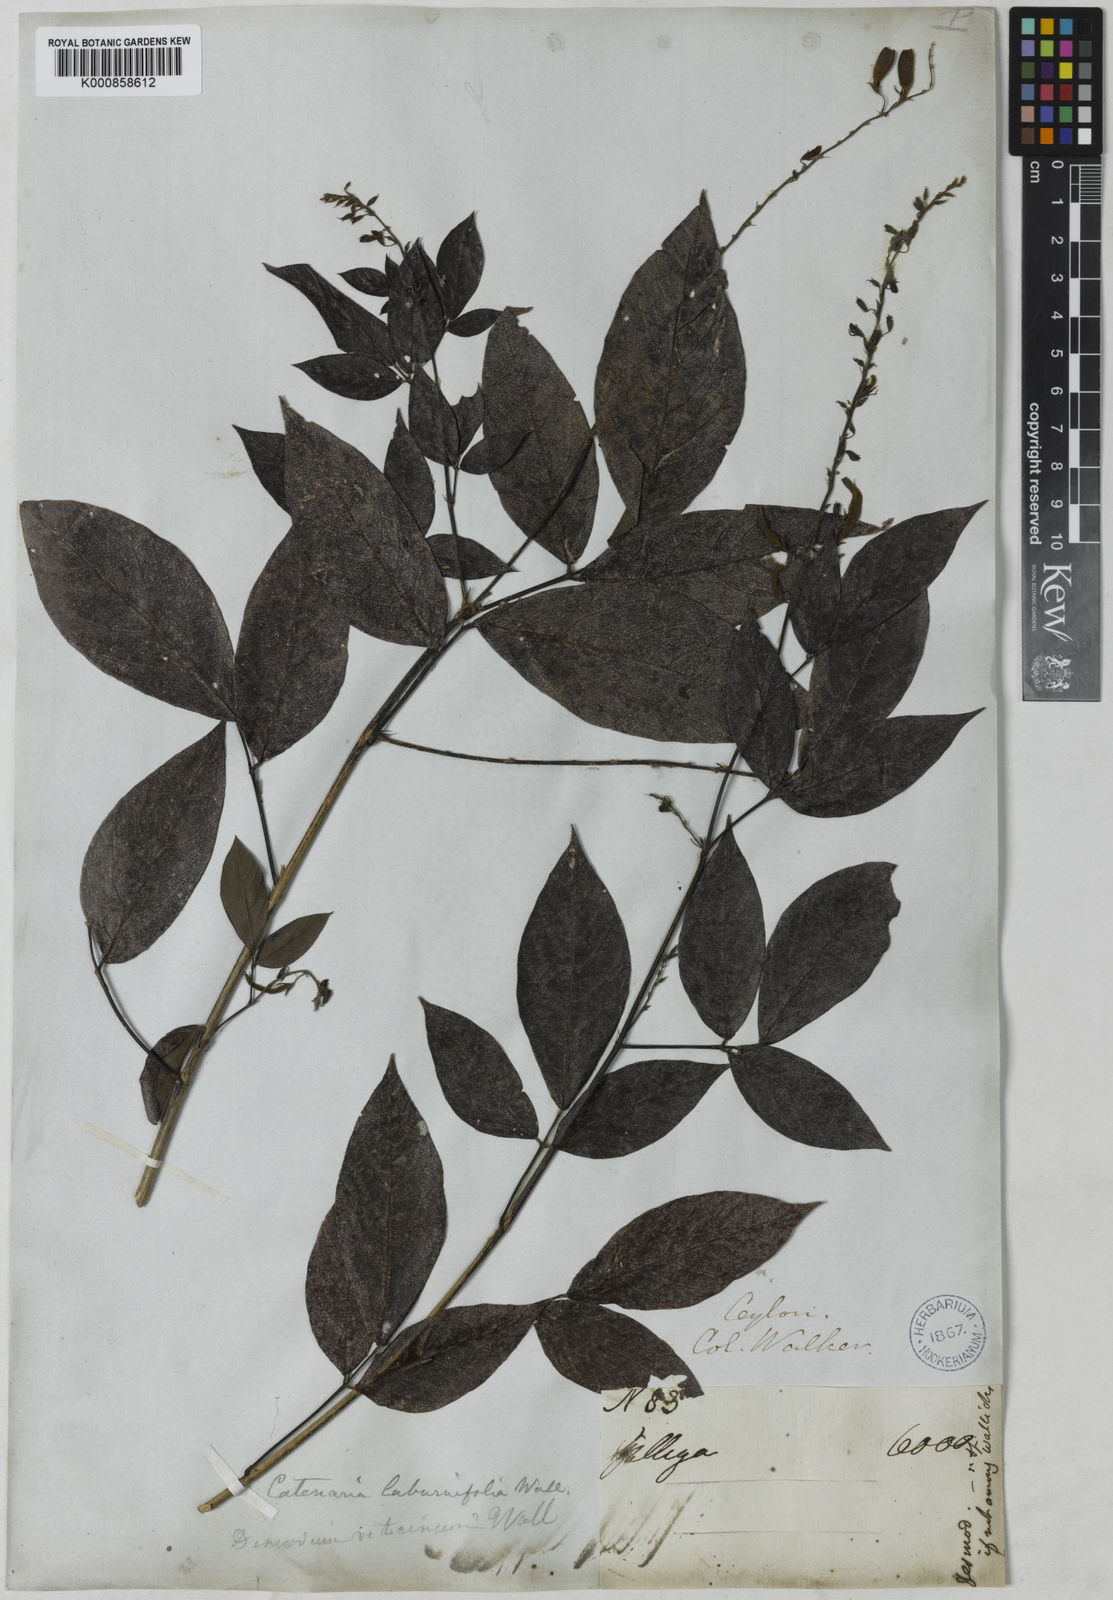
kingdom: Plantae
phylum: Tracheophyta
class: Magnoliopsida
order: Fabales
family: Fabaceae
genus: Ohwia
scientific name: Ohwia caudata
